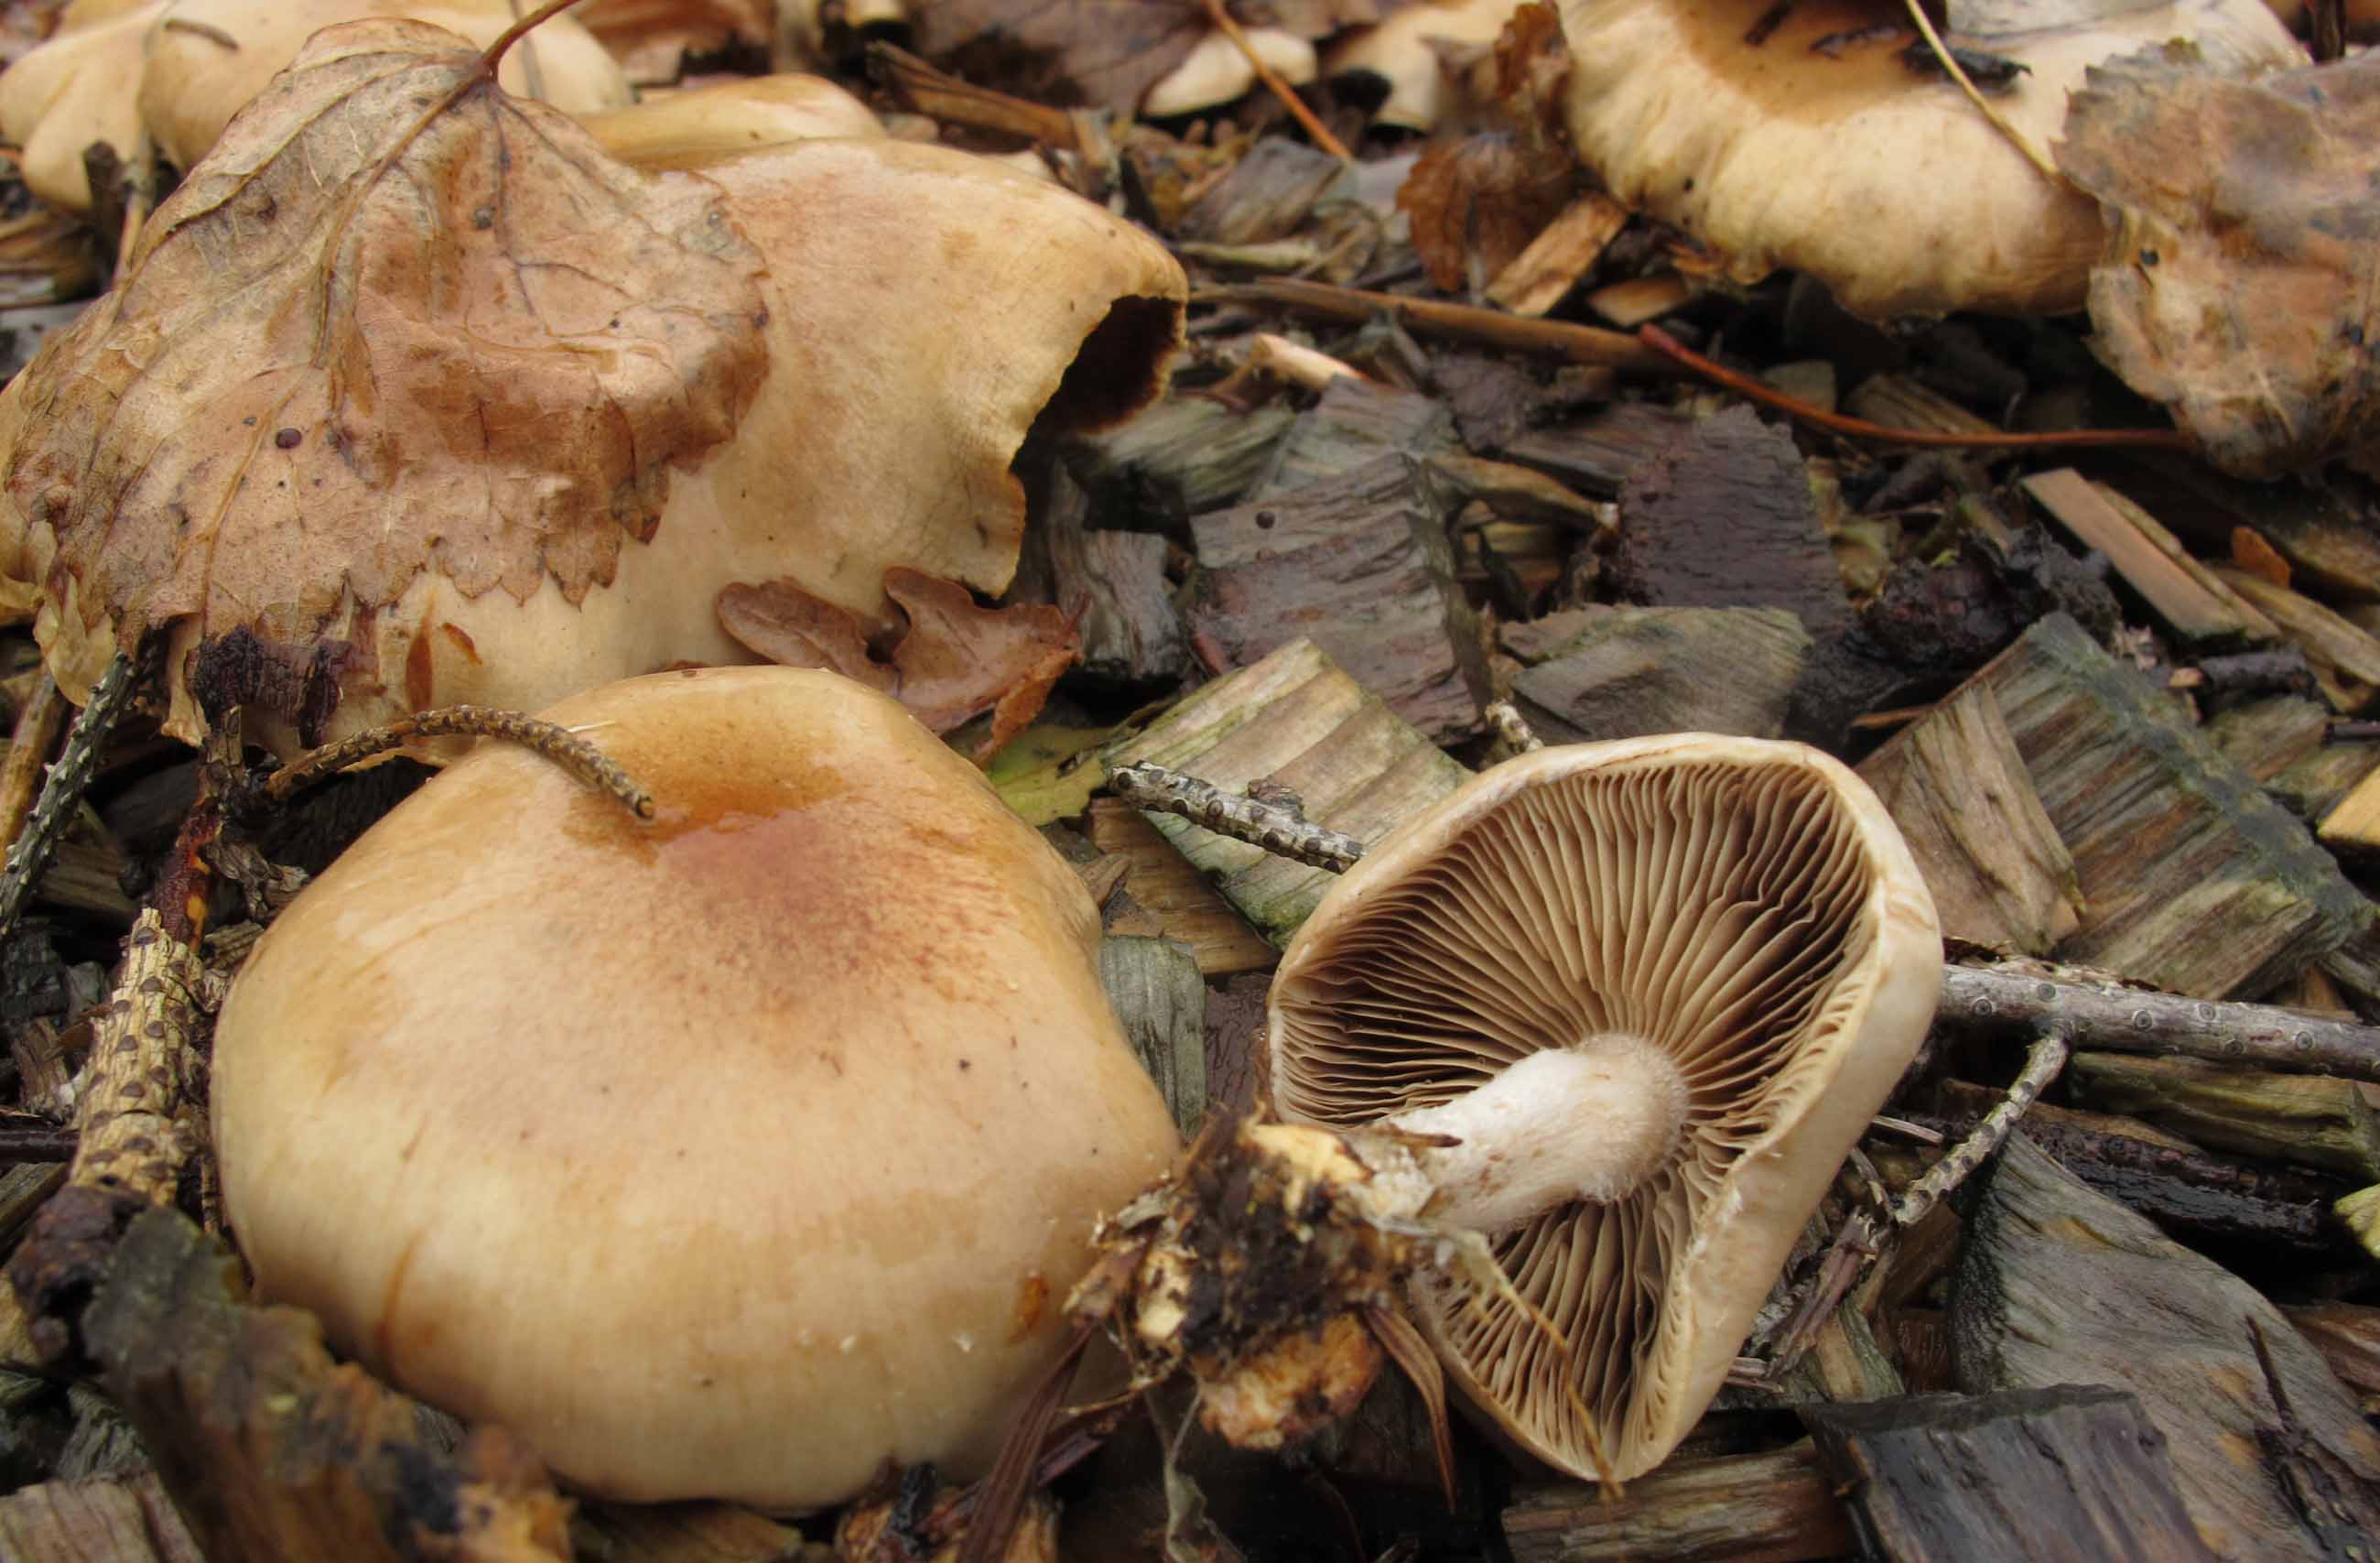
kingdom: Fungi
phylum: Basidiomycota
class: Agaricomycetes
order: Agaricales
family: Strophariaceae
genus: Pholiota
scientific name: Pholiota lenta
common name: løv-skælhat
